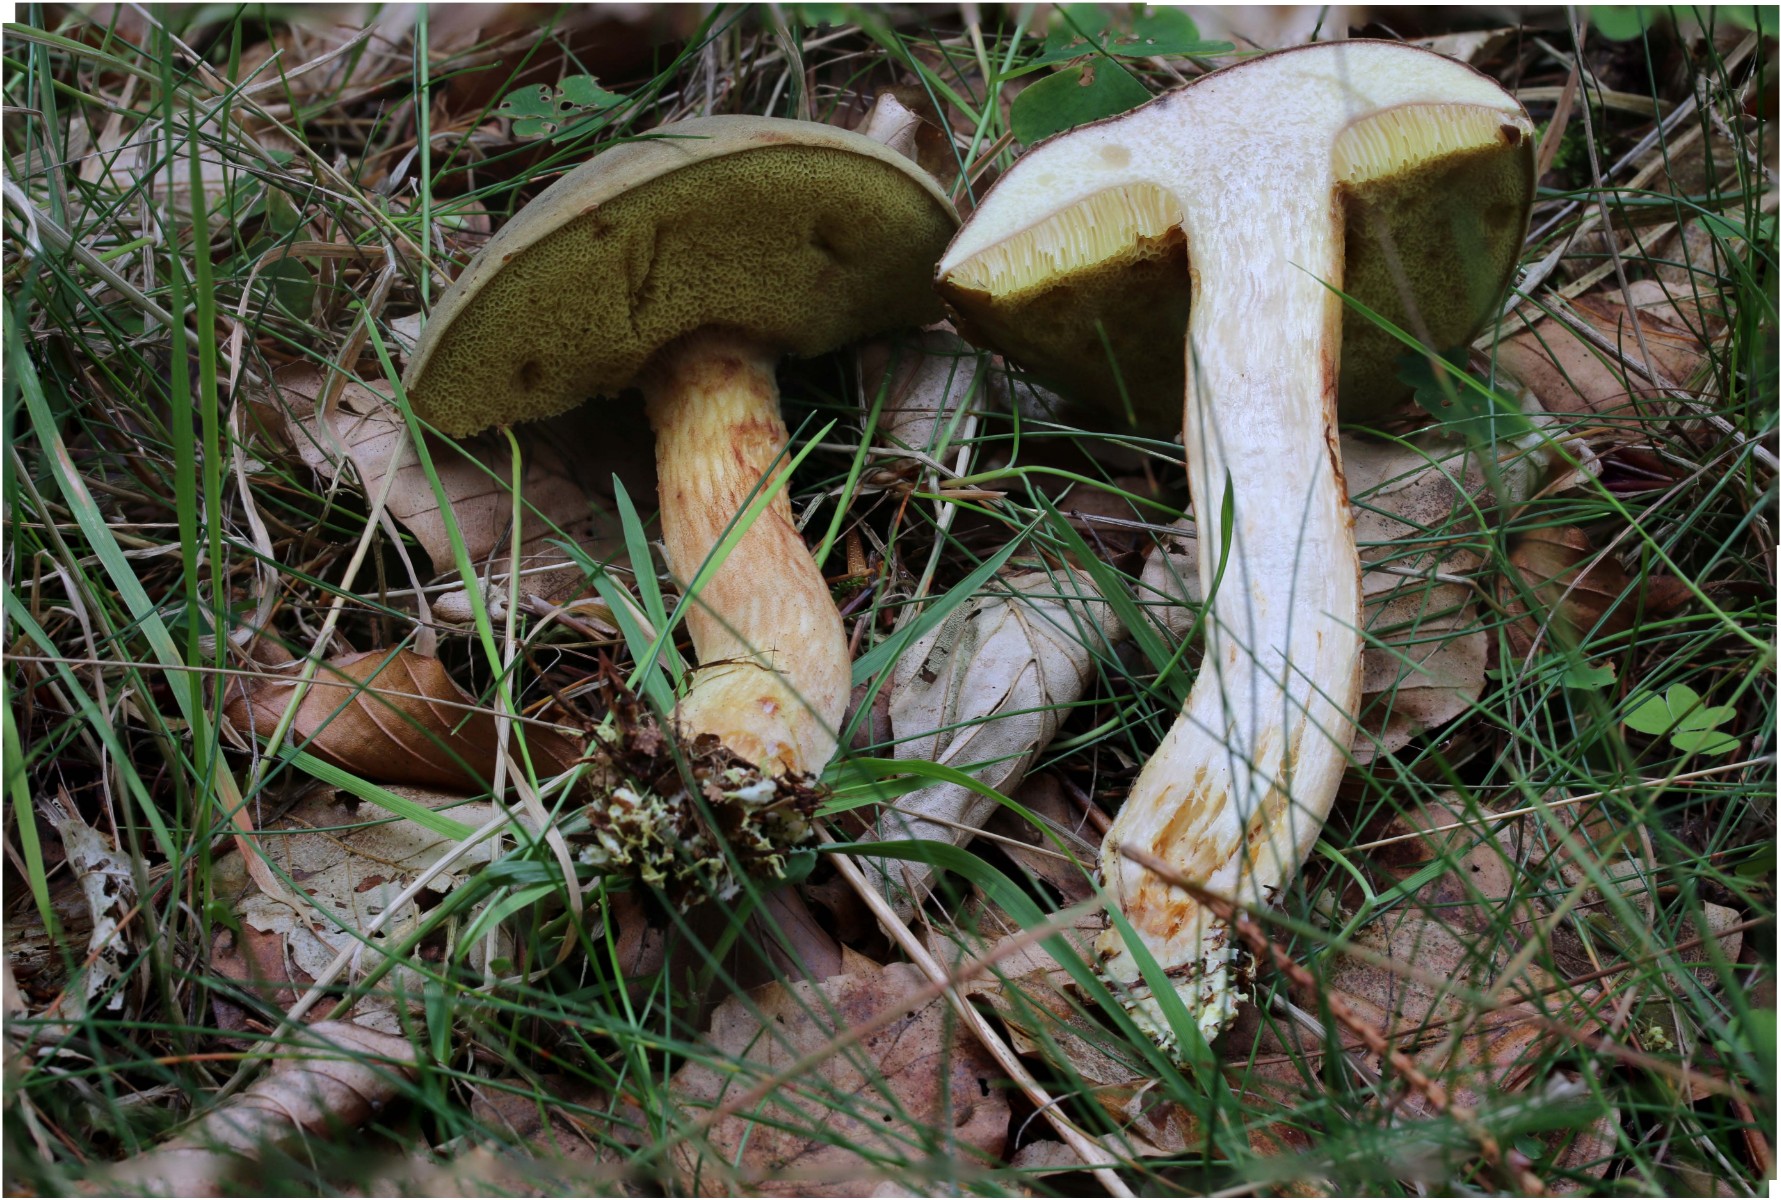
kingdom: Fungi
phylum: Basidiomycota
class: Agaricomycetes
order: Boletales
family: Boletaceae
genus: Xerocomus
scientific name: Xerocomus ferrugineus
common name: vaskeskinds-rørhat
